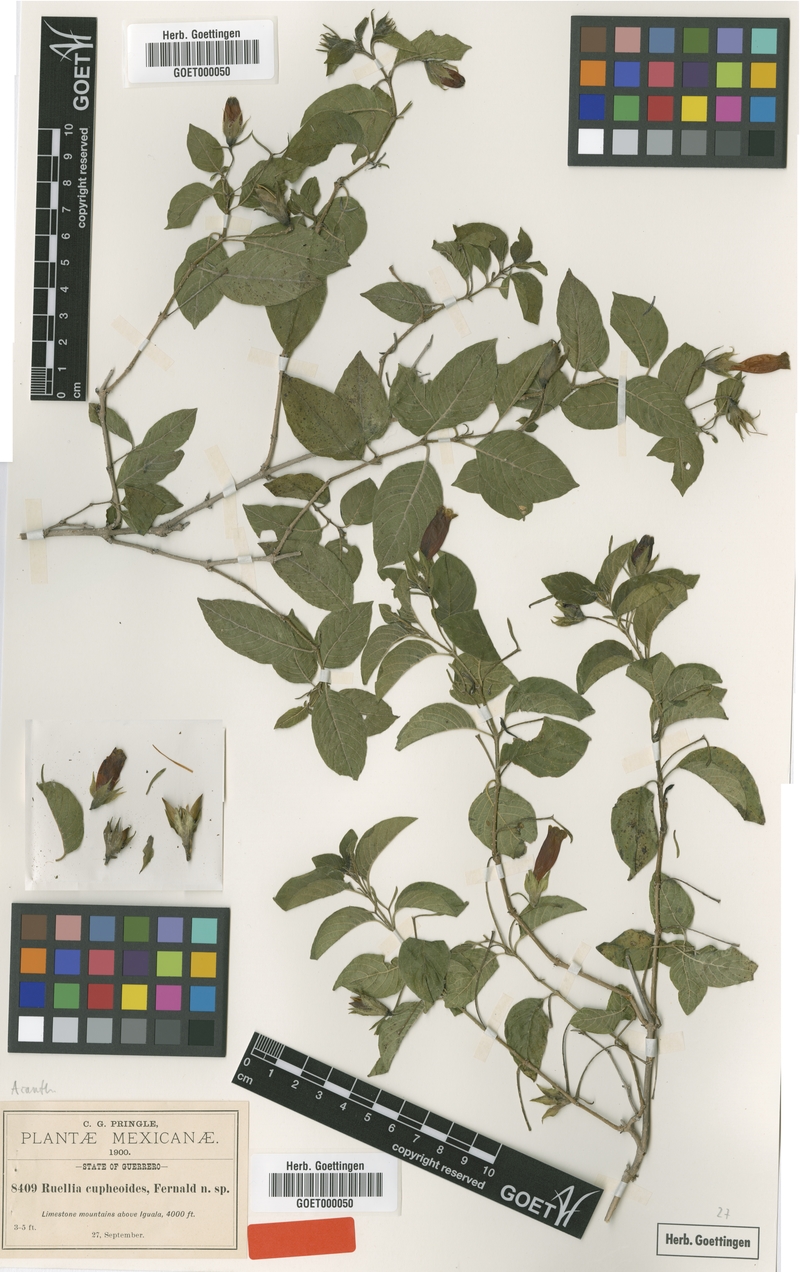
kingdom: Plantae
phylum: Tracheophyta
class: Magnoliopsida
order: Lamiales
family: Acanthaceae
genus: Ruellia
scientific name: Ruellia fruticosa
